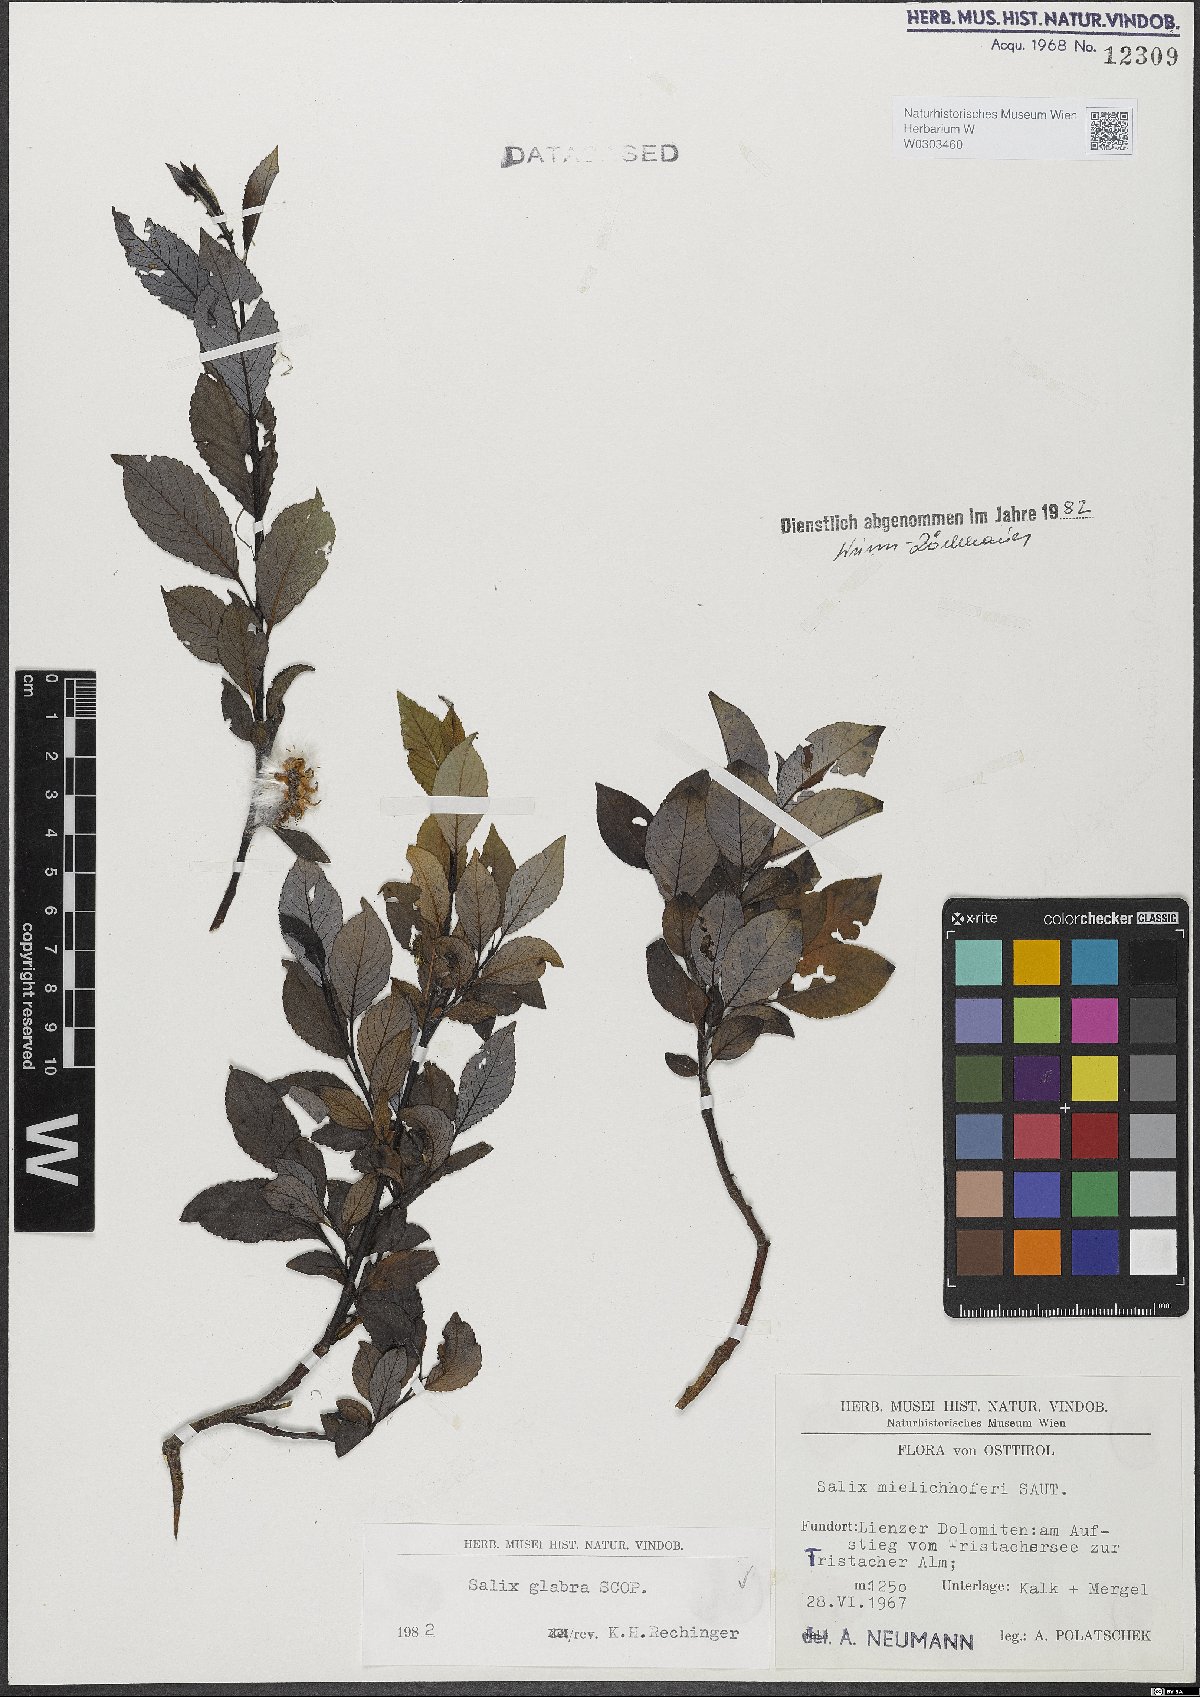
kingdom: Plantae
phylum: Tracheophyta
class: Magnoliopsida
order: Malpighiales
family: Salicaceae
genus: Salix
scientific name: Salix glabra
